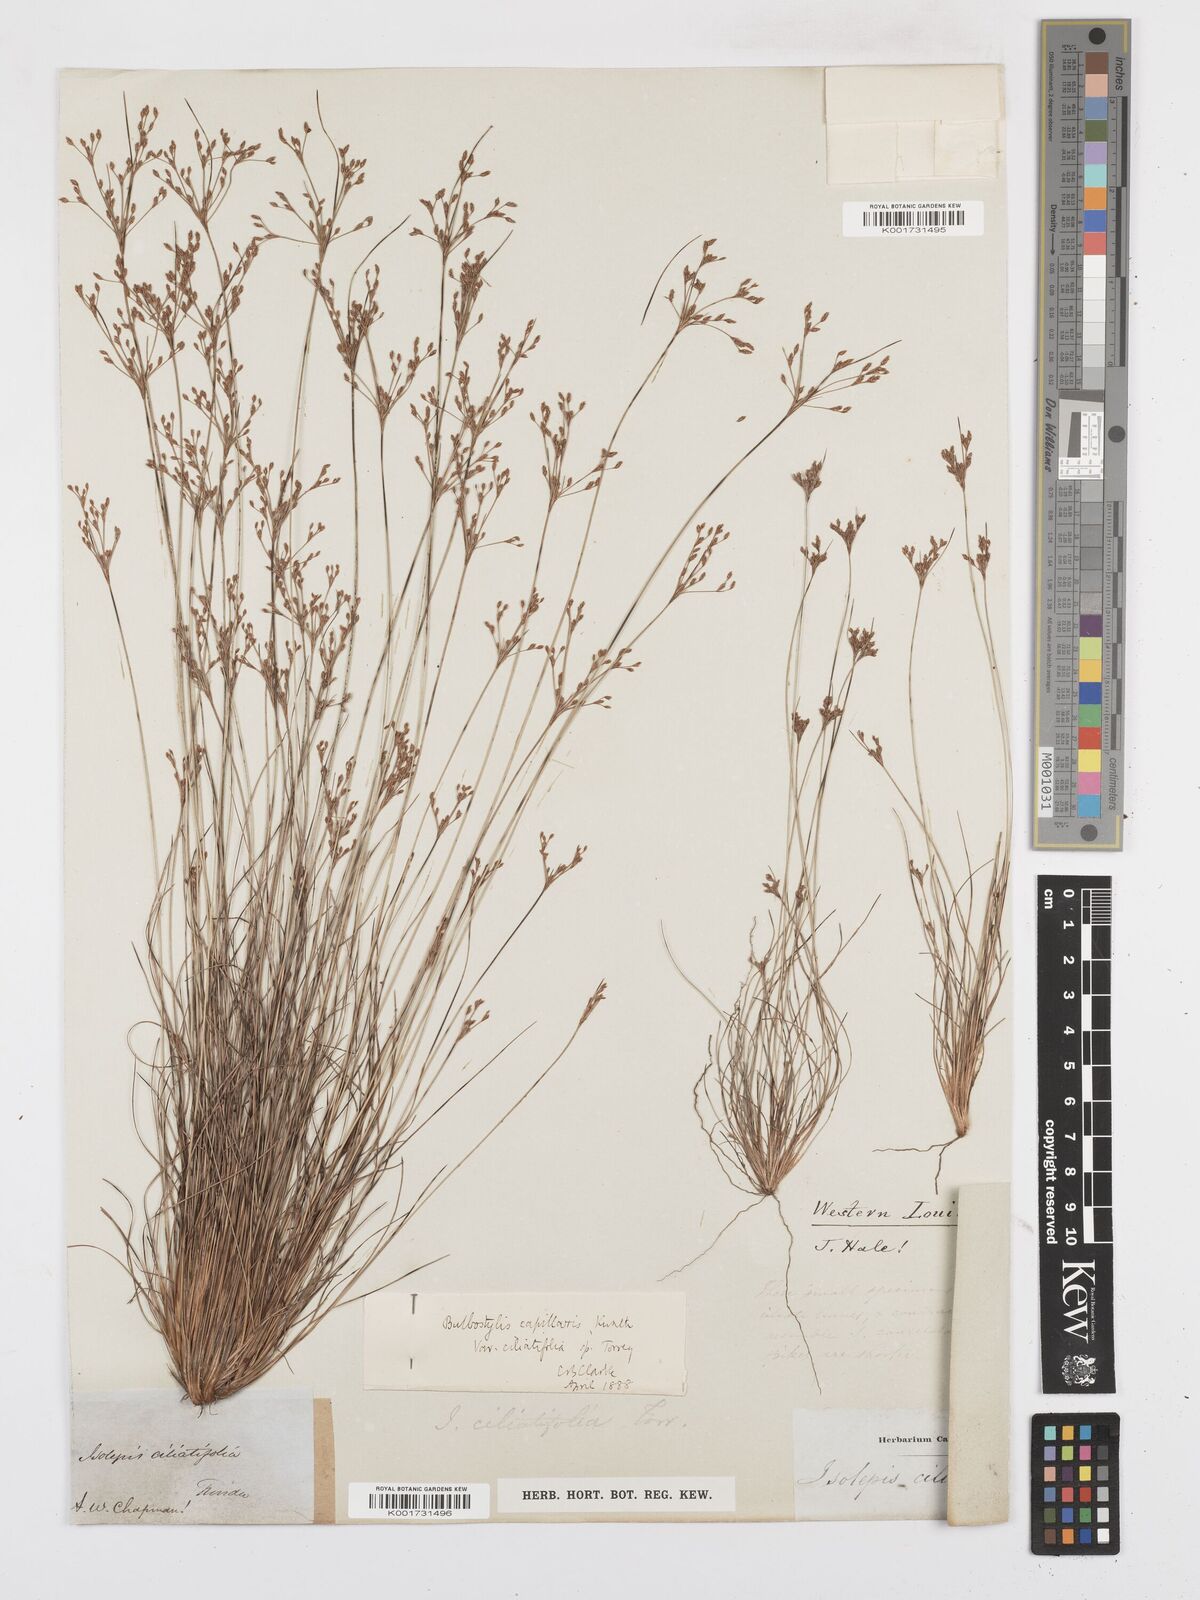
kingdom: Plantae
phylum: Tracheophyta
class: Liliopsida
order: Poales
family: Cyperaceae
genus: Bulbostylis
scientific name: Bulbostylis ciliatifolia
